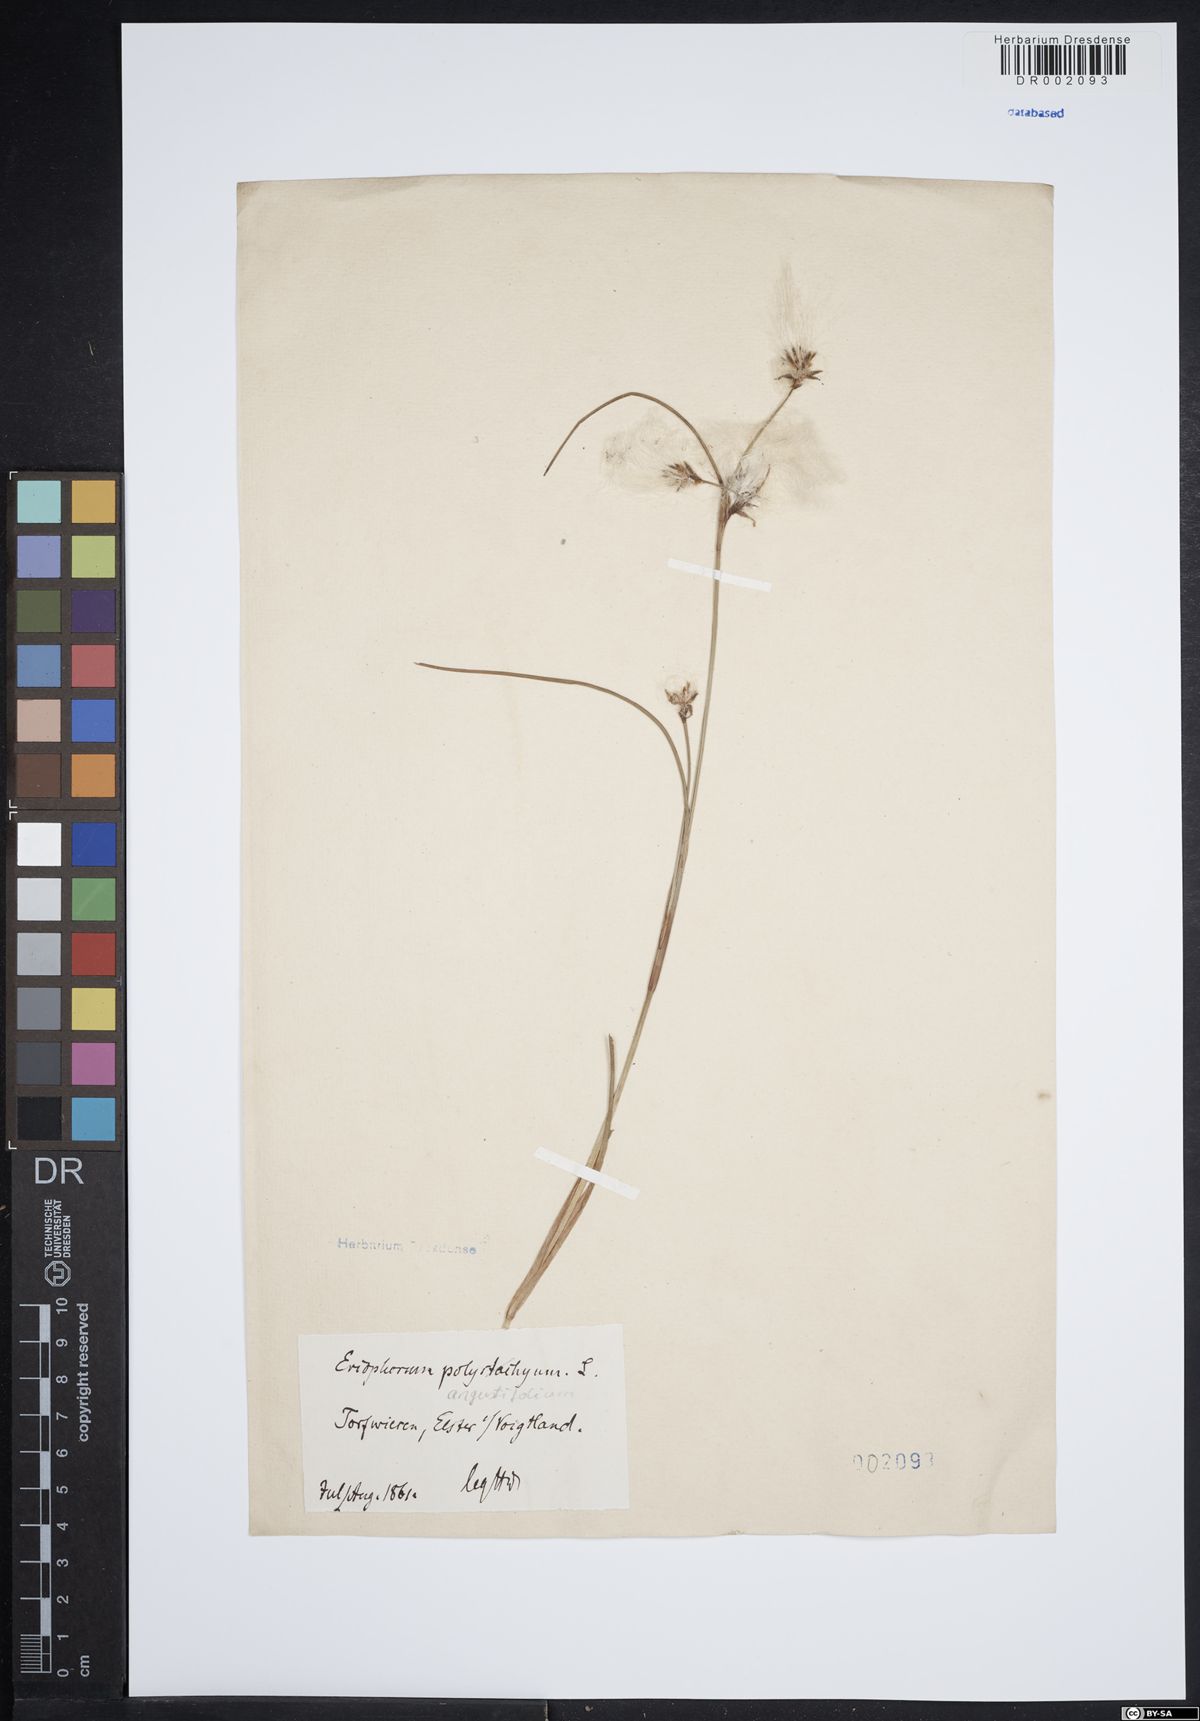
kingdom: Plantae
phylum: Tracheophyta
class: Liliopsida
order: Poales
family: Cyperaceae
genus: Eriophorum
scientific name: Eriophorum angustifolium
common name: Common cottongrass
